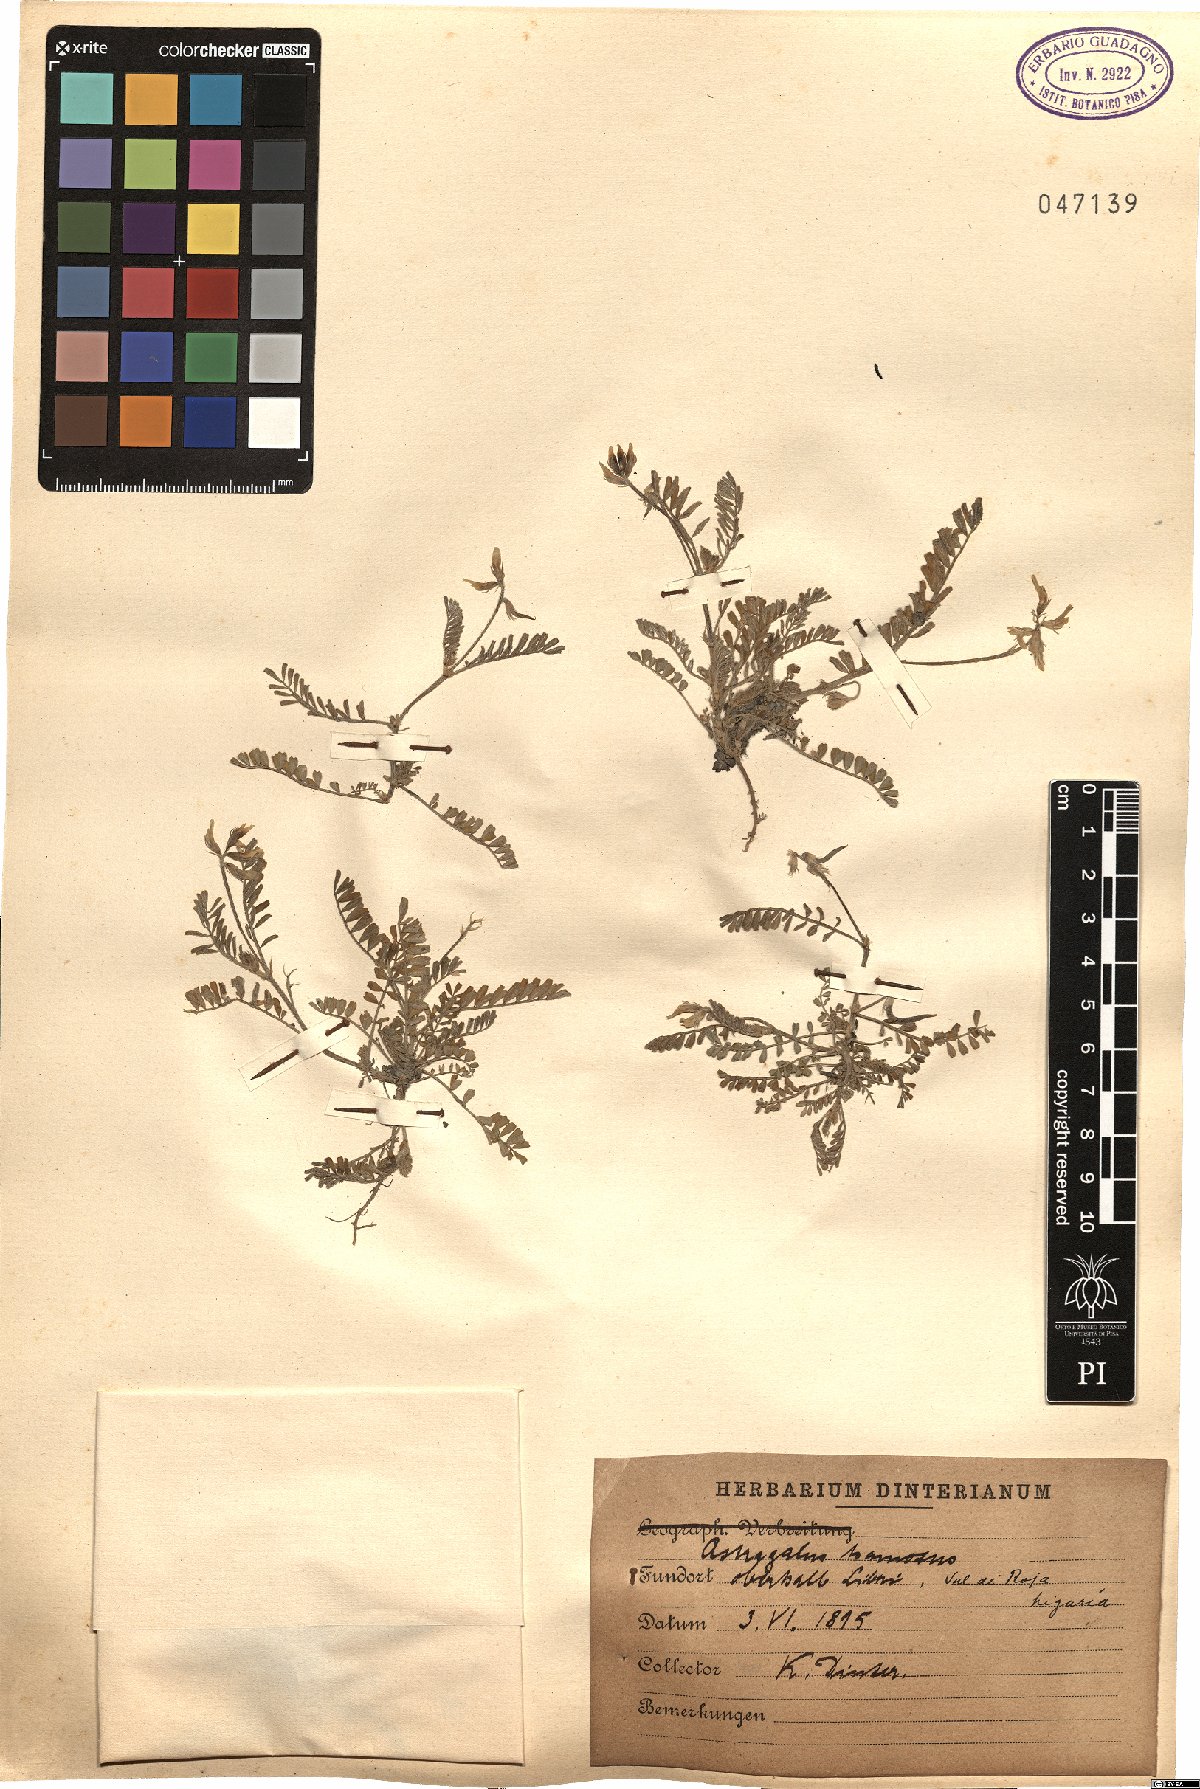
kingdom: Plantae
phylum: Tracheophyta
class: Magnoliopsida
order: Fabales
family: Fabaceae
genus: Astragalus
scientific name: Astragalus hamosus
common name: European milkvetch
